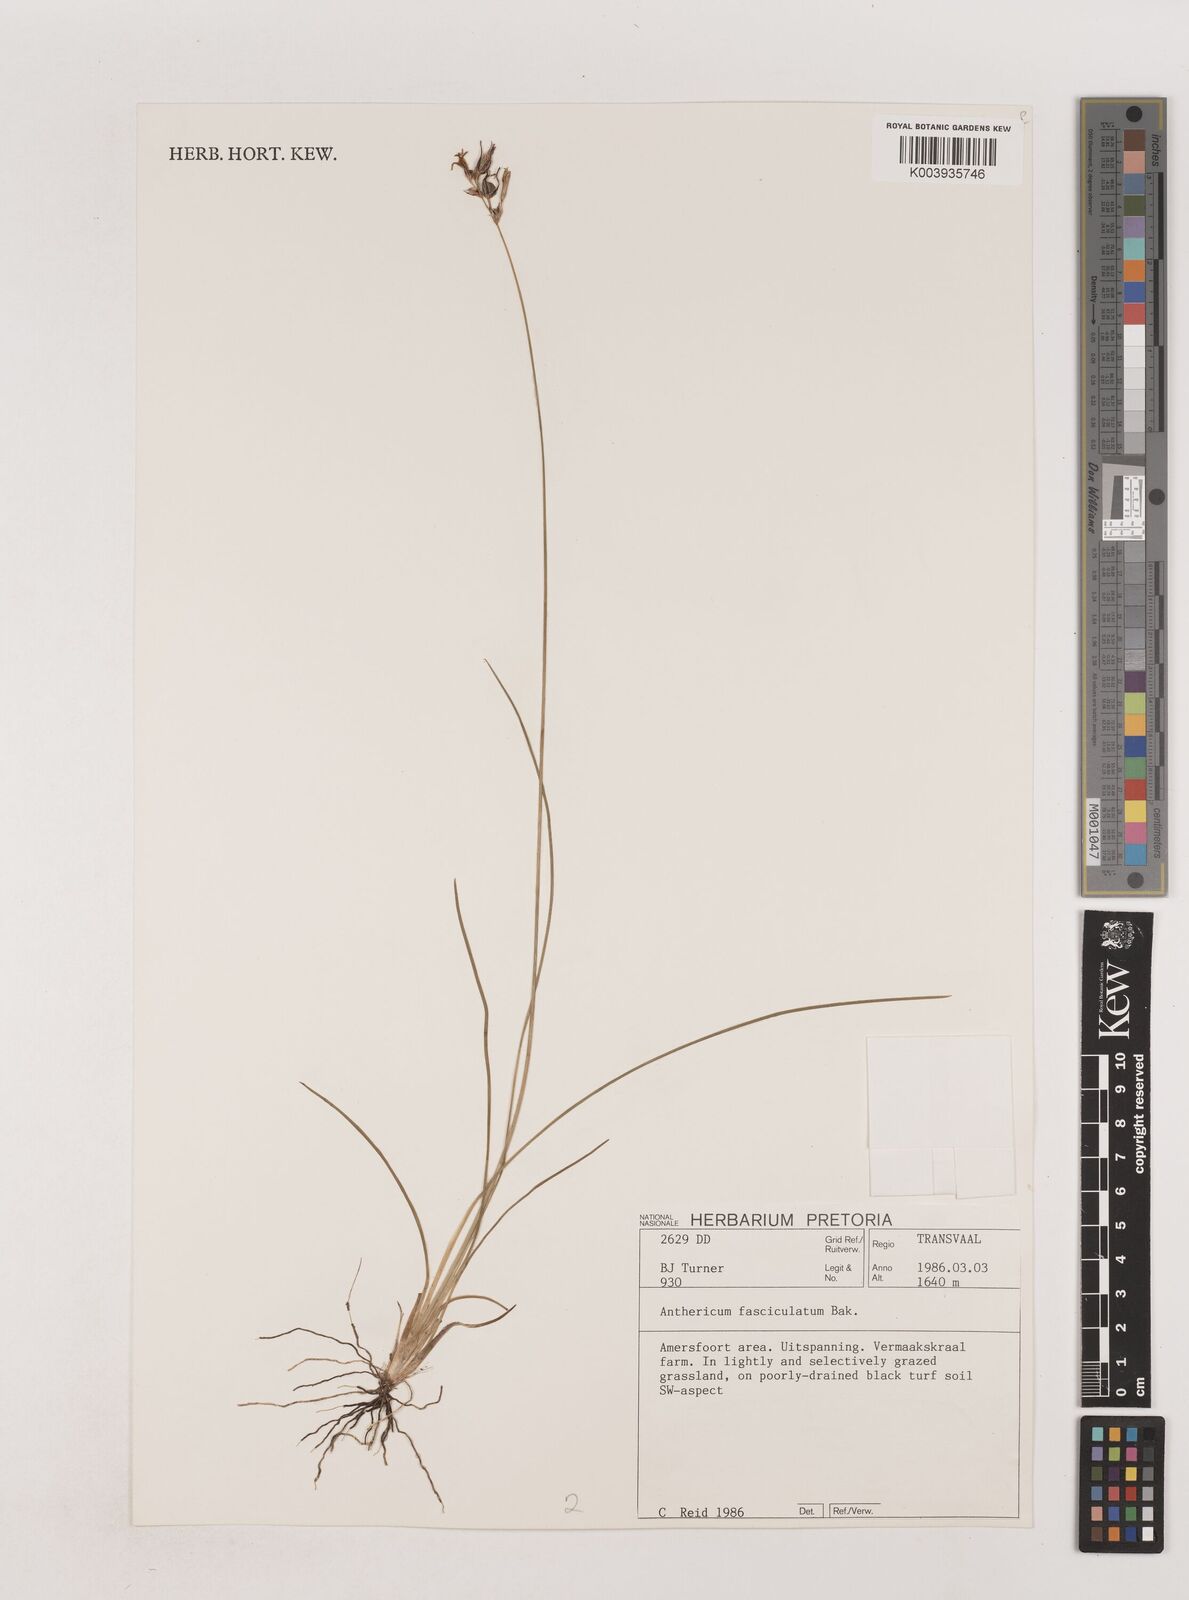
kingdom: Plantae
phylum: Tracheophyta
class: Liliopsida
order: Asparagales
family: Asparagaceae
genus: Chlorophytum
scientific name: Chlorophytum fasciculatum
